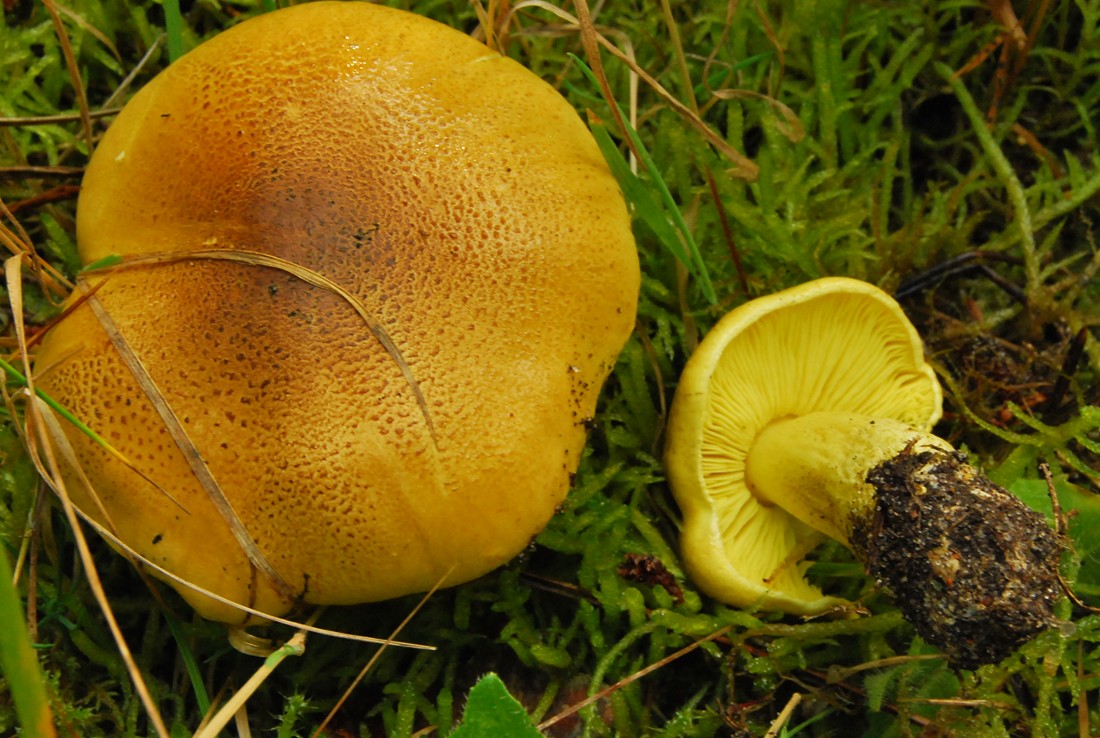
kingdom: Fungi
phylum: Basidiomycota
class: Agaricomycetes
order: Agaricales
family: Tricholomataceae
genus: Tricholoma
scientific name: Tricholoma equestre
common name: ægte ridderhat
